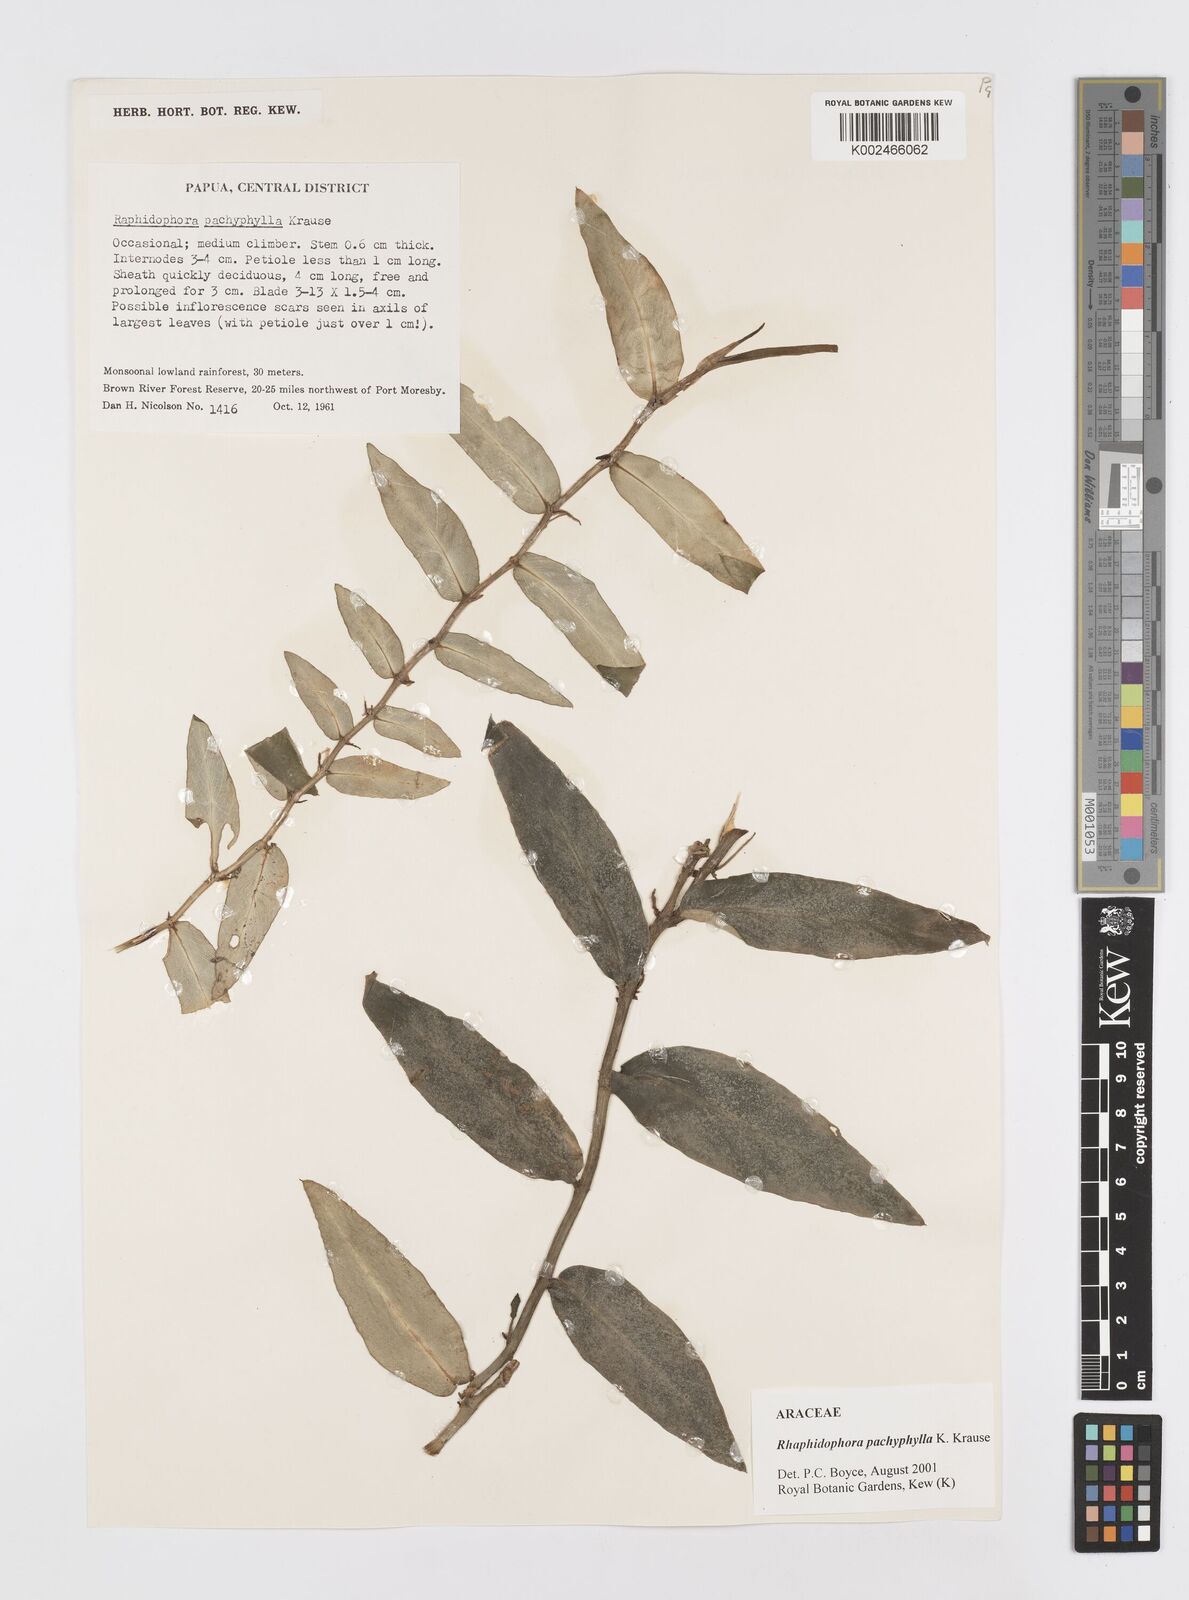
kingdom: Plantae
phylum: Tracheophyta
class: Liliopsida
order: Alismatales
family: Araceae
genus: Rhaphidophora
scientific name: Rhaphidophora nicolsonii
